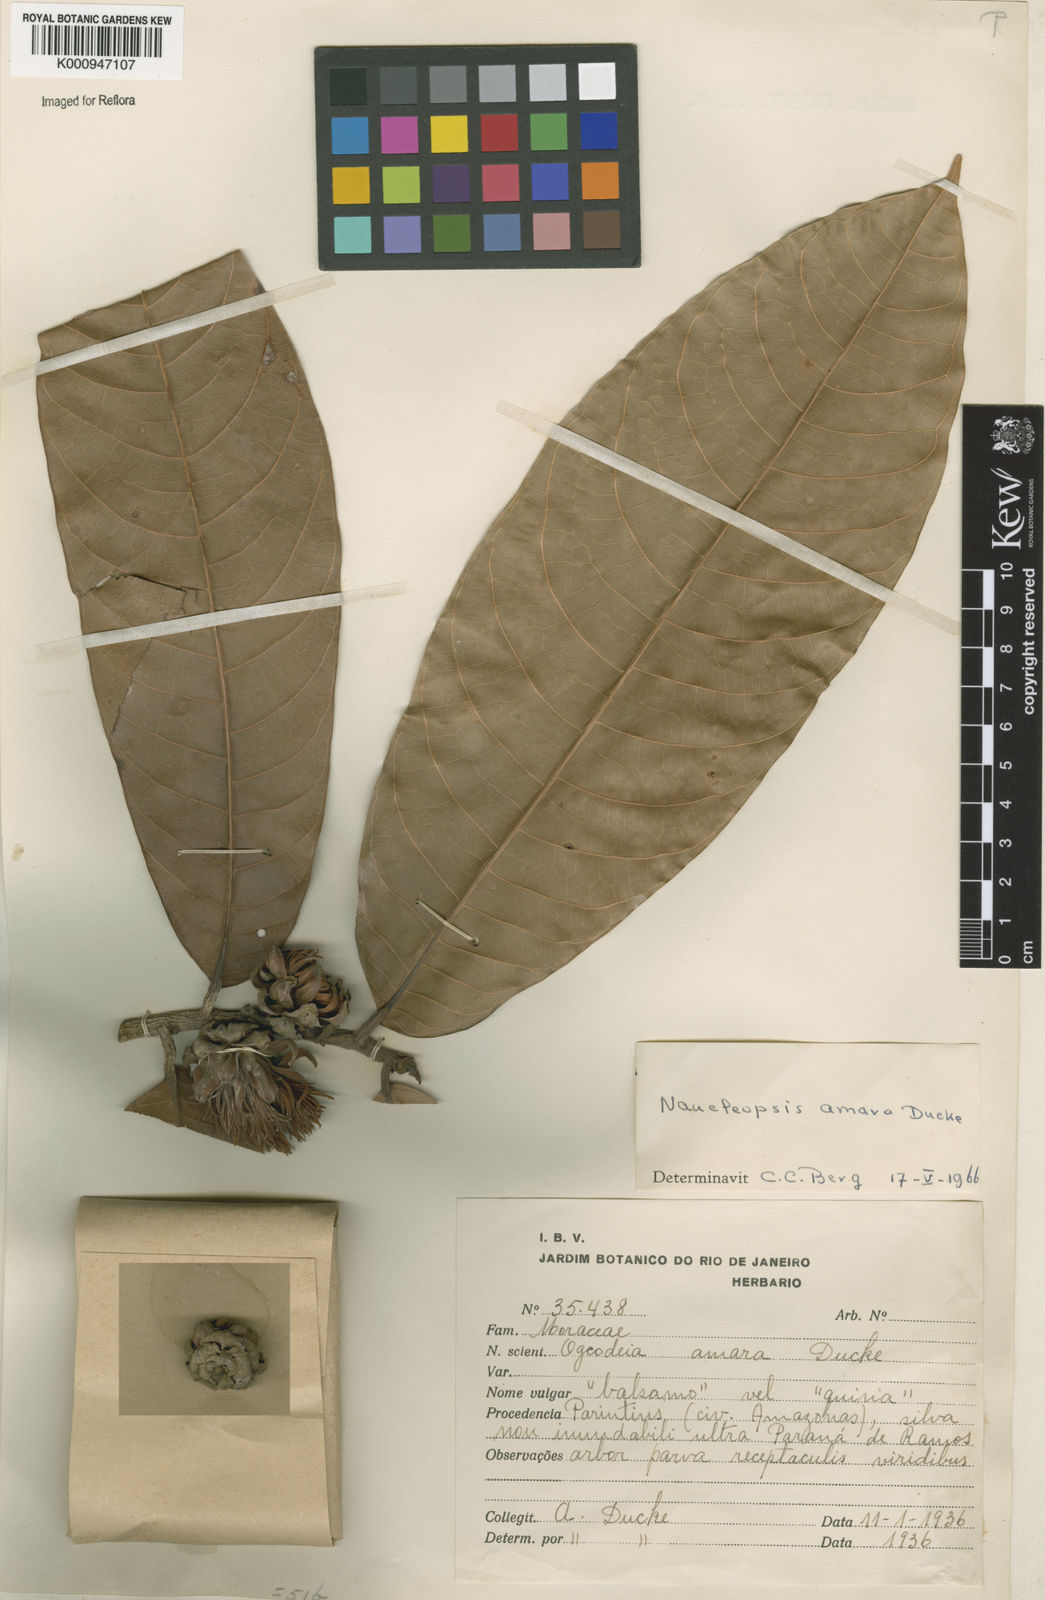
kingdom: Plantae
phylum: Tracheophyta
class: Magnoliopsida
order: Rosales
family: Moraceae
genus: Naucleopsis
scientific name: Naucleopsis ulei
